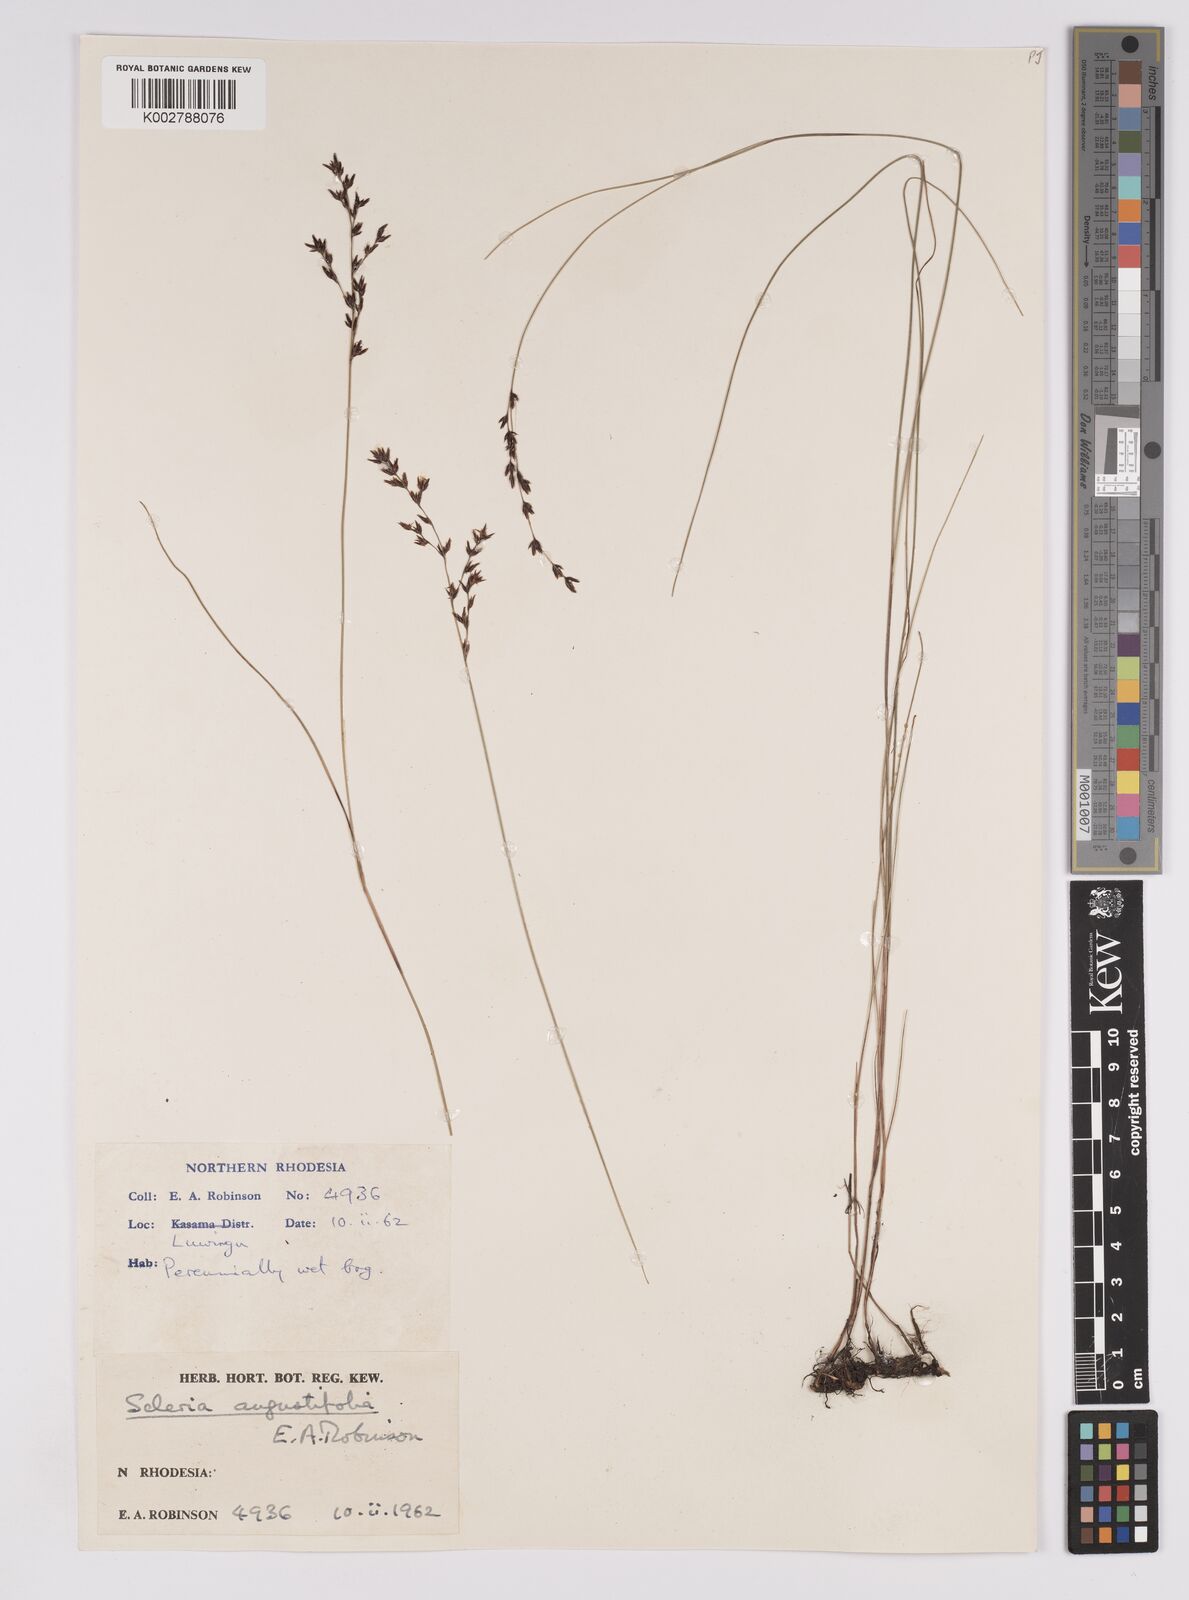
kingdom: Plantae
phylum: Tracheophyta
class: Liliopsida
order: Poales
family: Cyperaceae
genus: Scleria
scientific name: Scleria angustifolia
